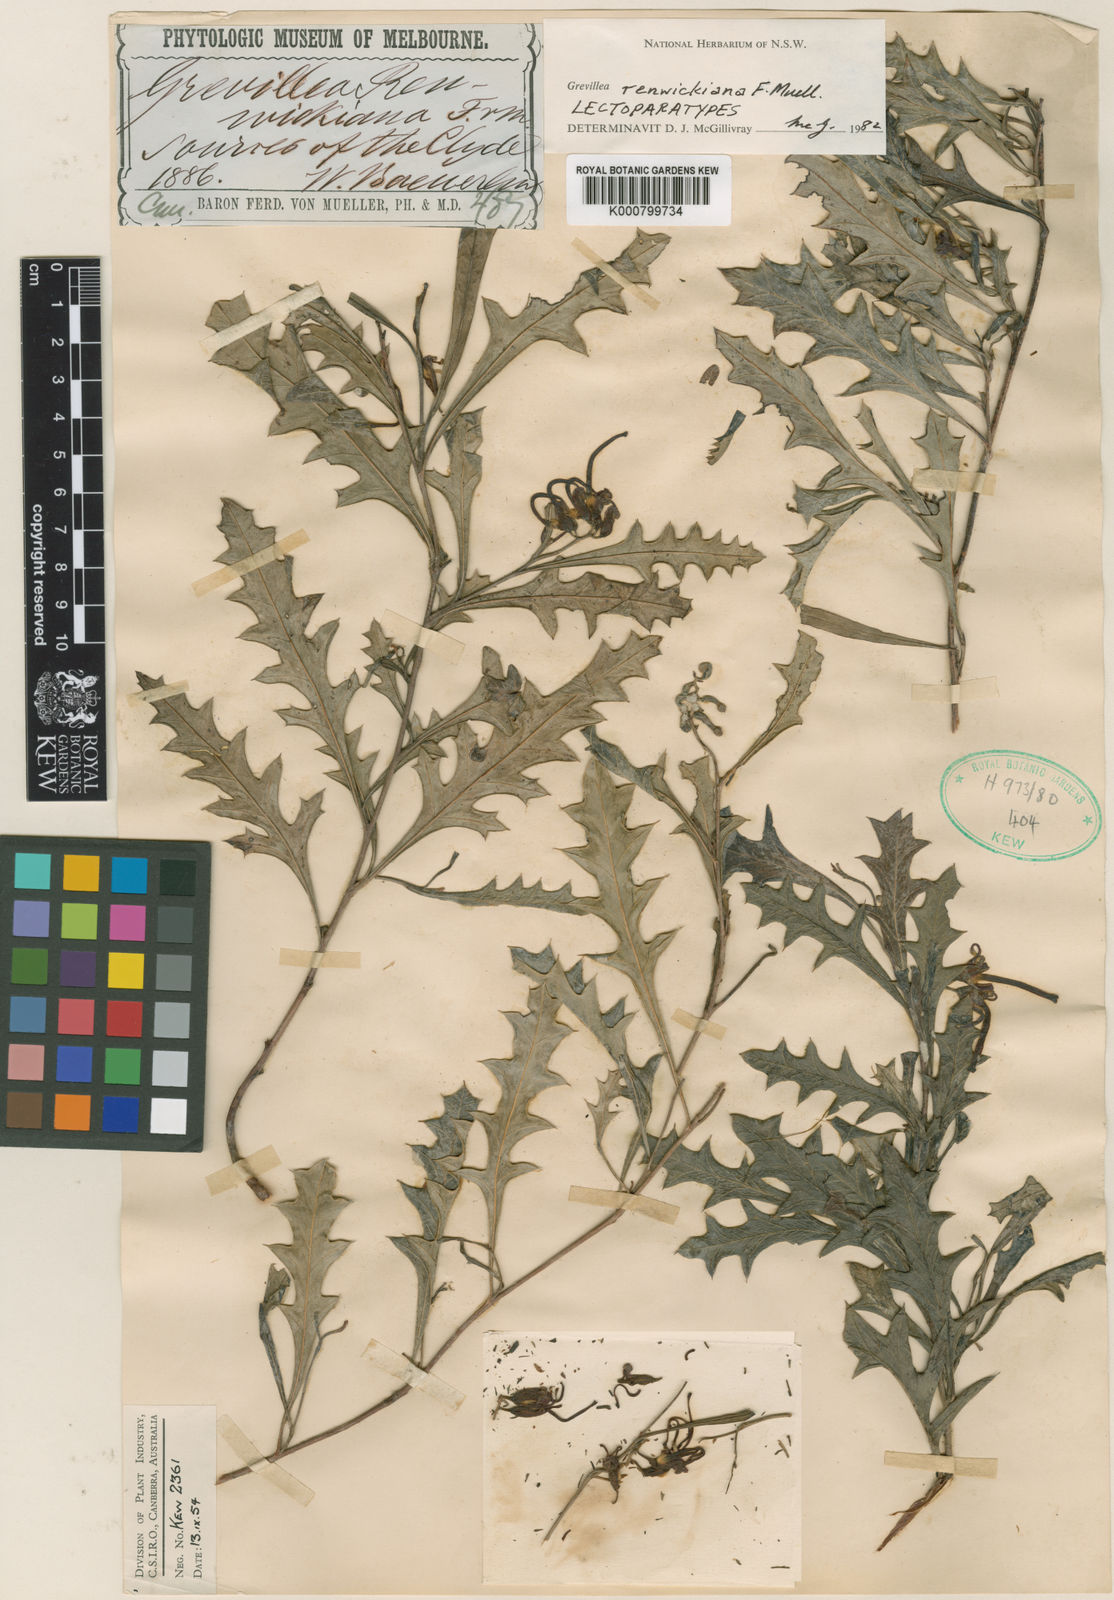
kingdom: Plantae
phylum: Tracheophyta
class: Magnoliopsida
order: Proteales
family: Proteaceae
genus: Grevillea
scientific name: Grevillea renwickiana
